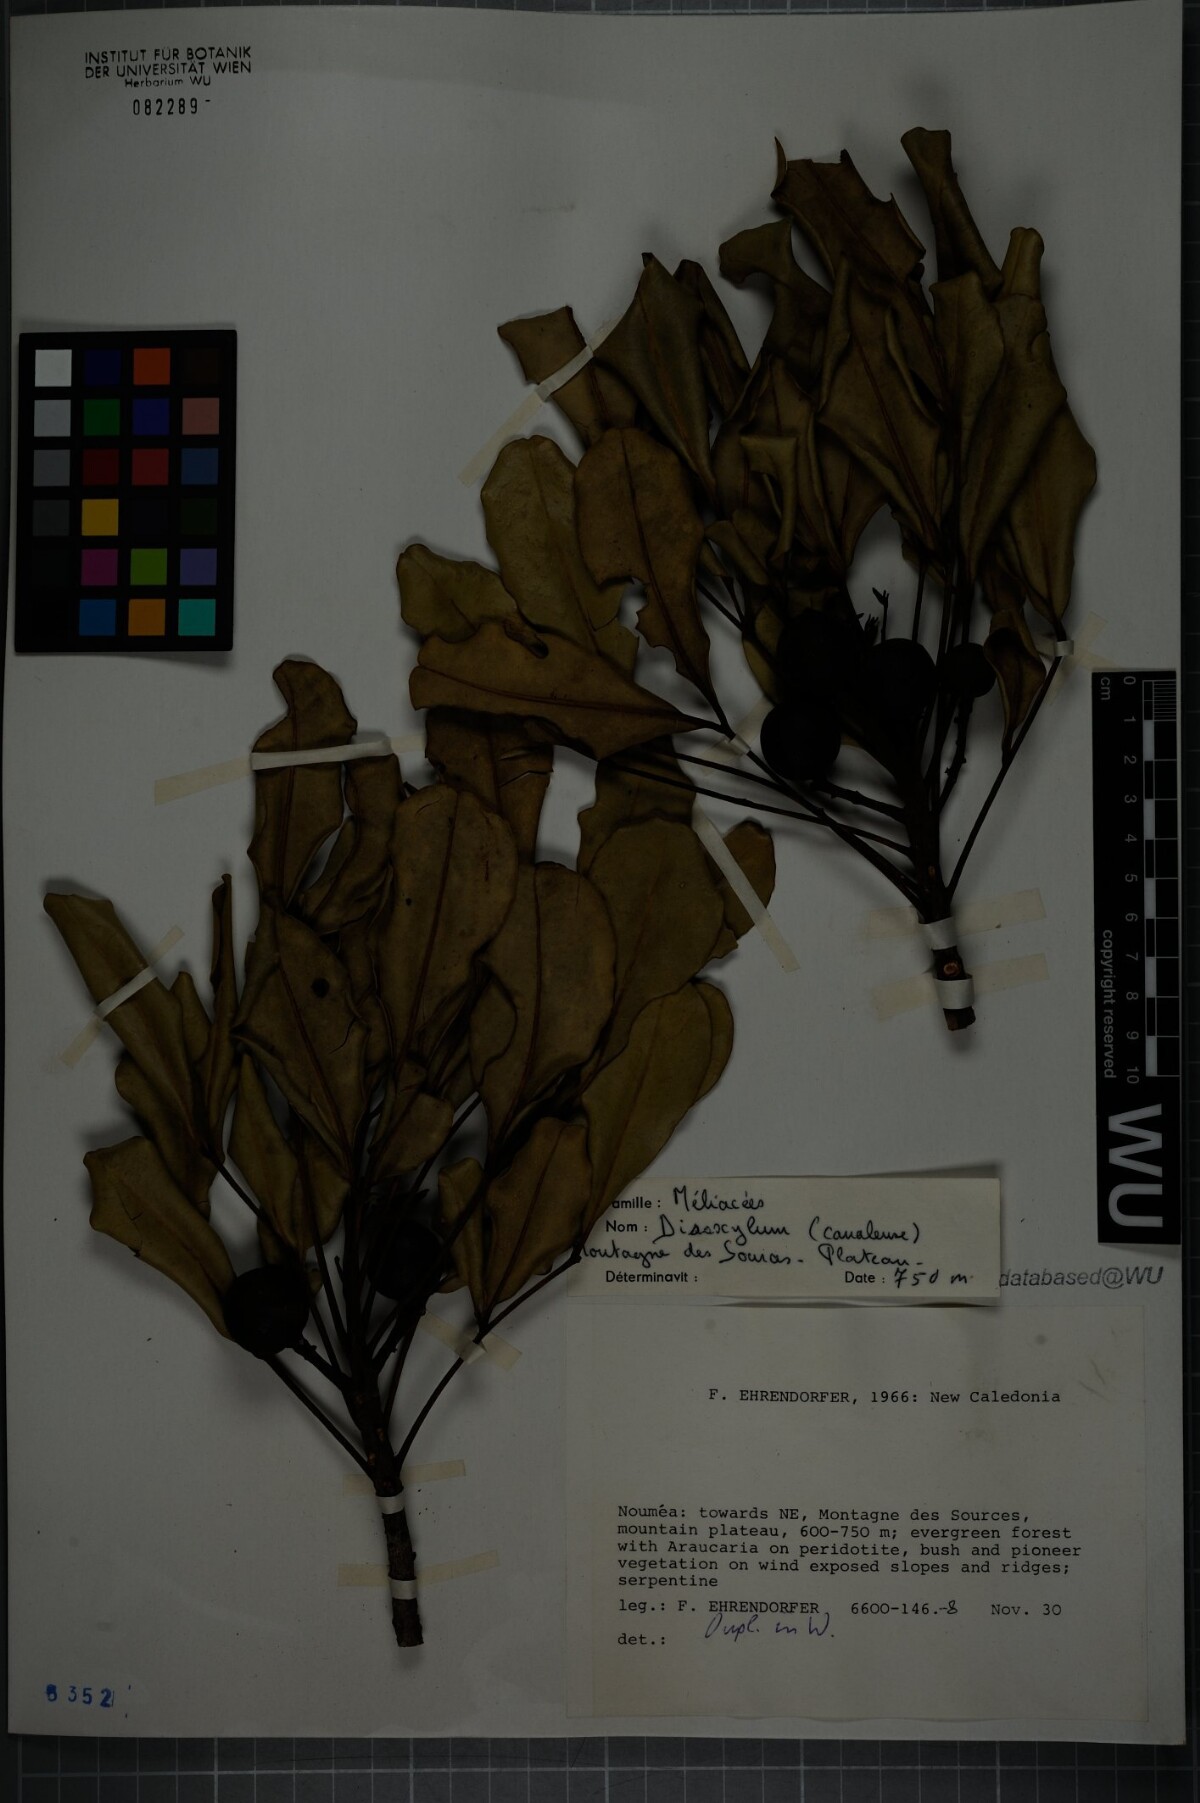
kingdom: Plantae
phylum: Tracheophyta
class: Magnoliopsida
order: Sapindales
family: Meliaceae
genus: Didymocheton
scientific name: Didymocheton canalensis
